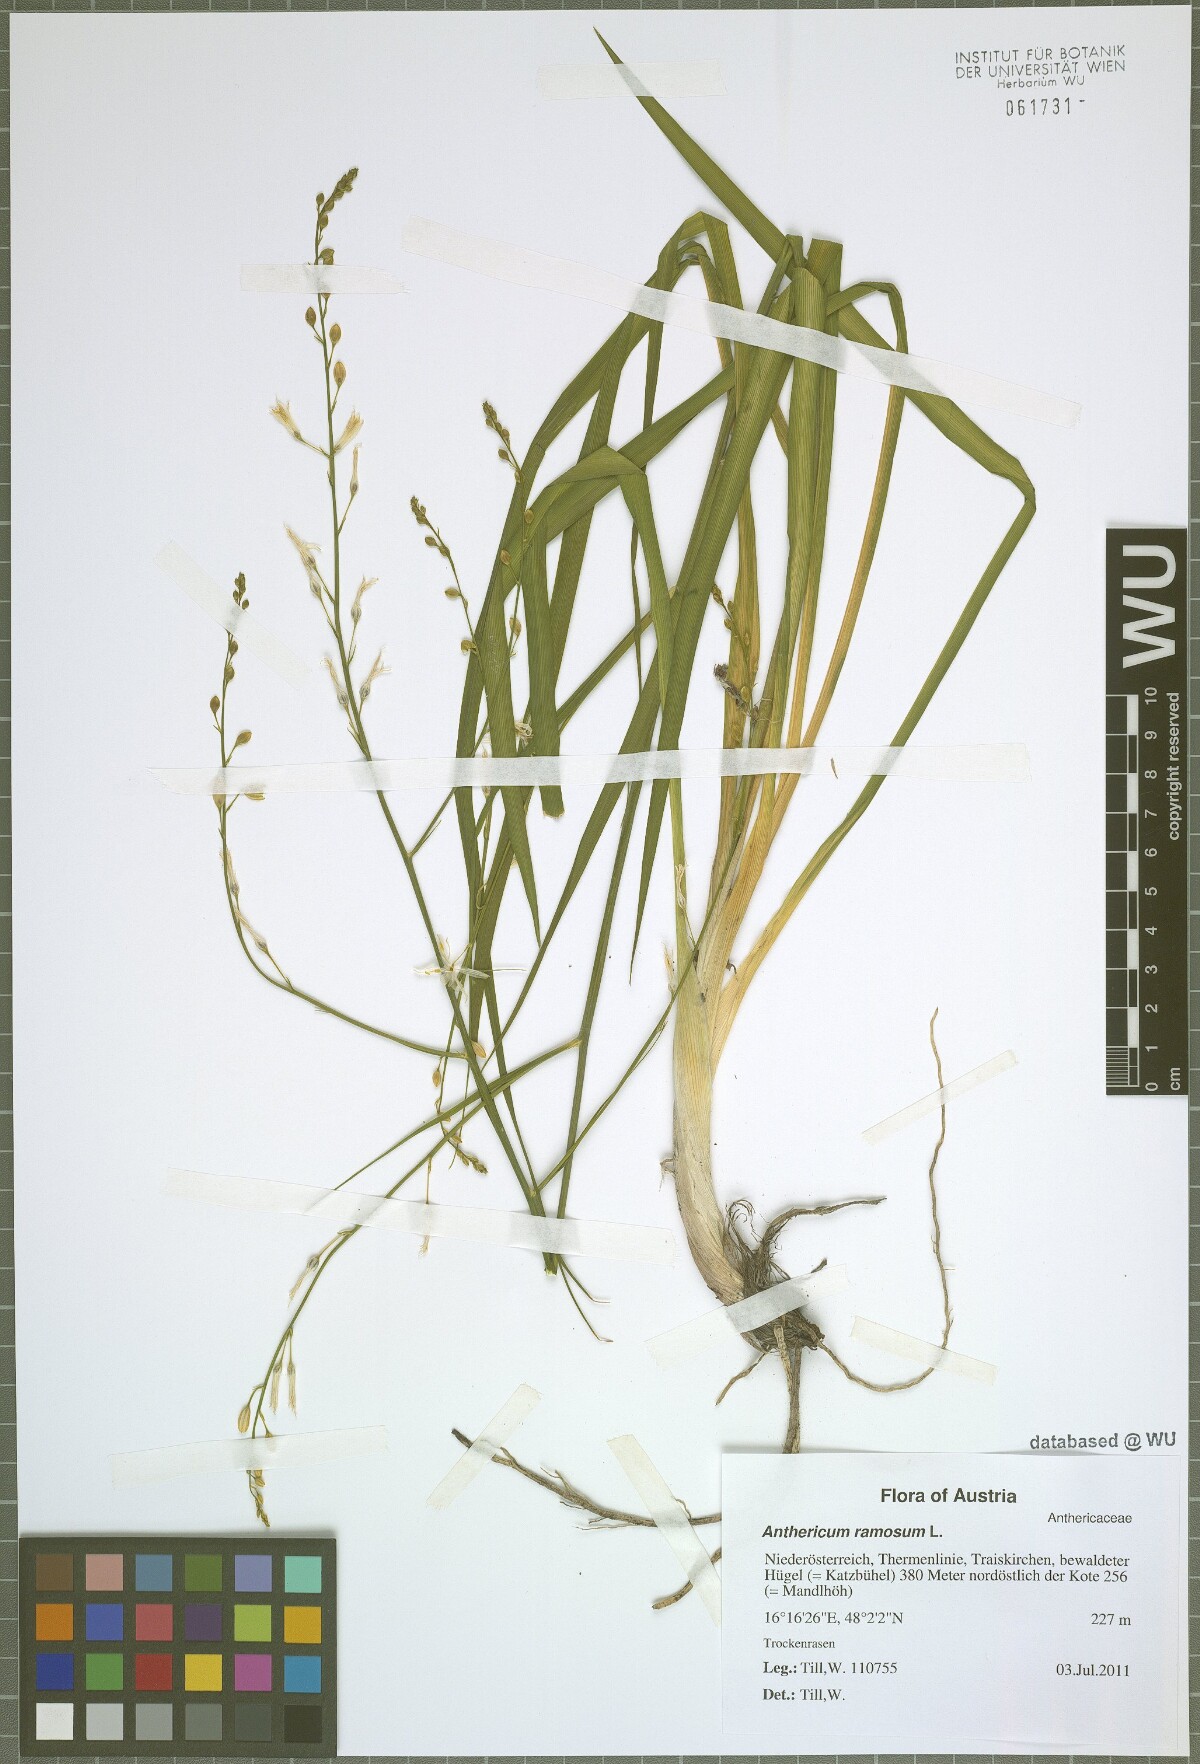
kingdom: Plantae
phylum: Tracheophyta
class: Liliopsida
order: Asparagales
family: Asparagaceae
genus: Anthericum
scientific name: Anthericum ramosum
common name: Branched st. bernard's-lily
